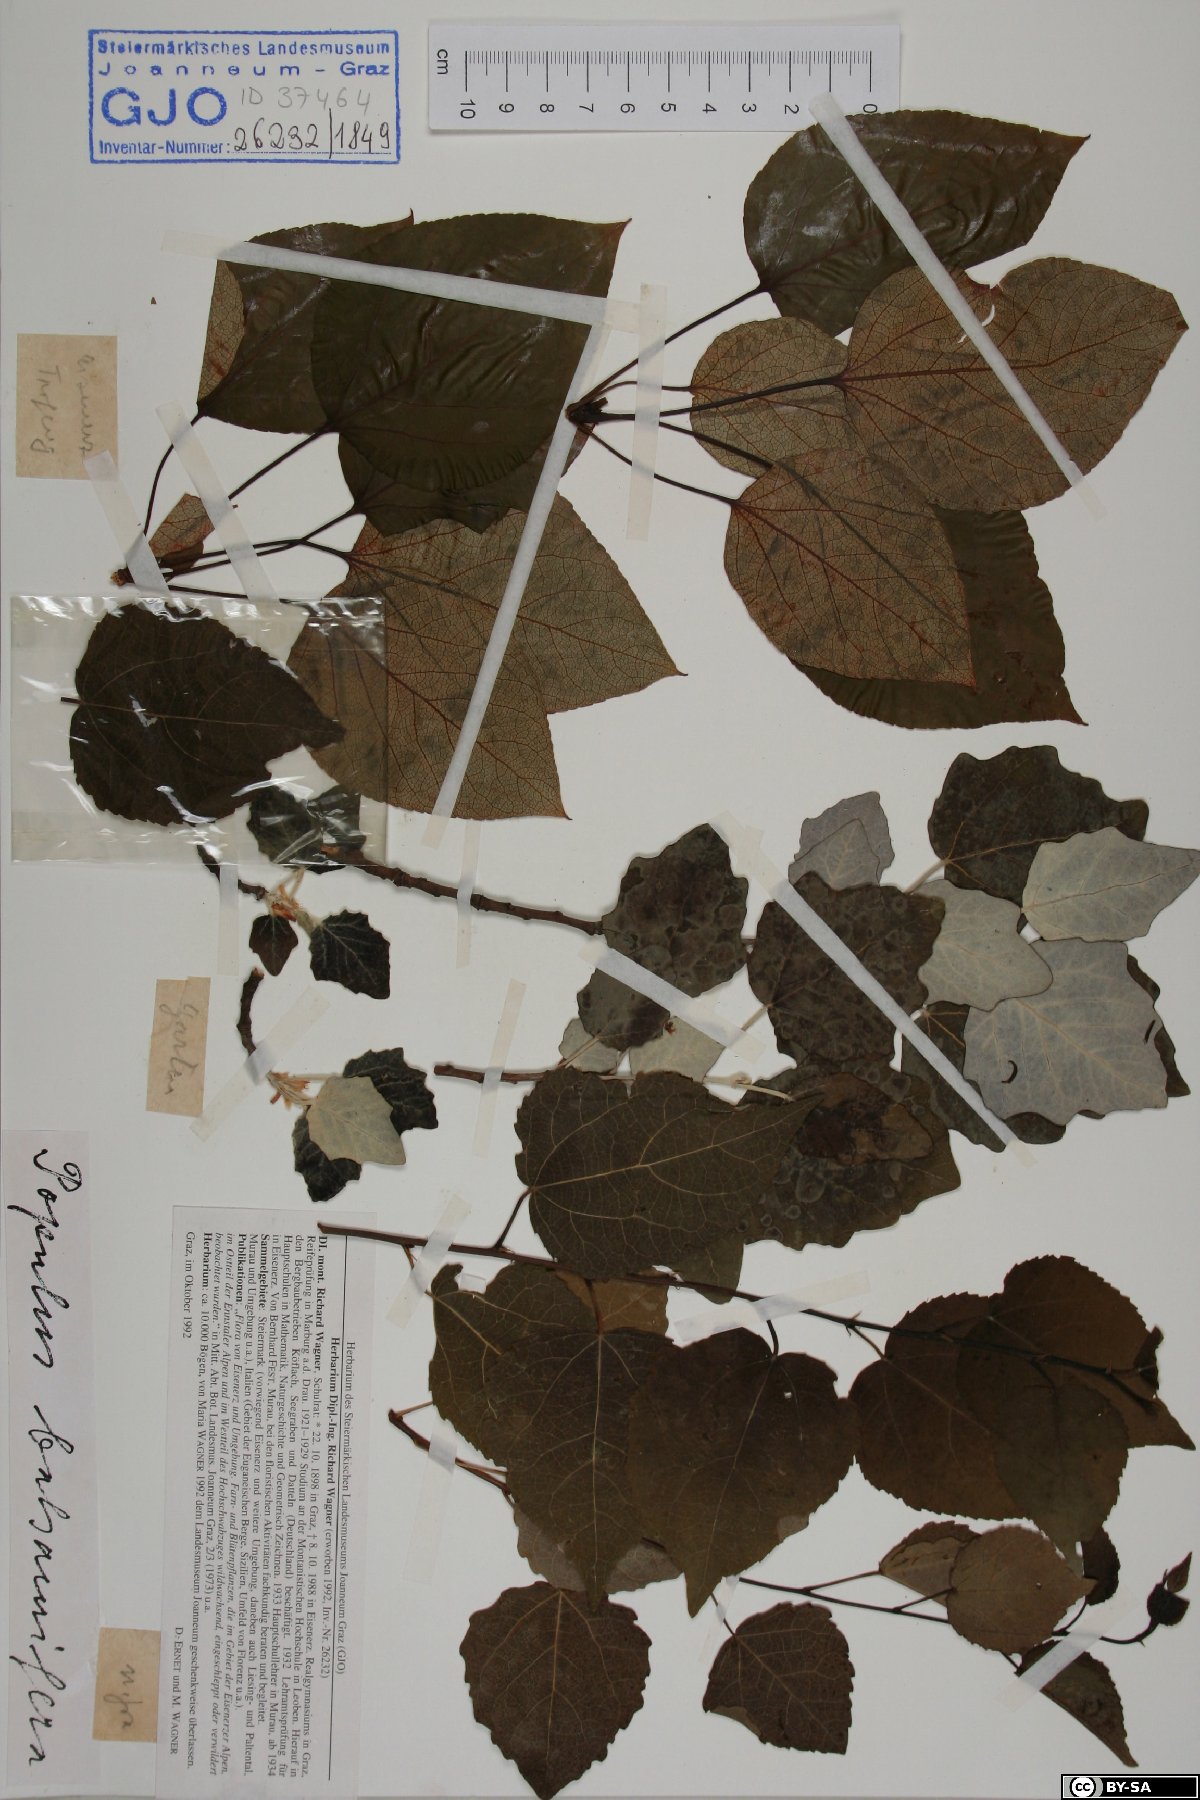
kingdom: Plantae
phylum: Tracheophyta
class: Magnoliopsida
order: Malpighiales
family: Salicaceae
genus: Populus
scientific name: Populus balsamifera
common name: Balsam poplar
